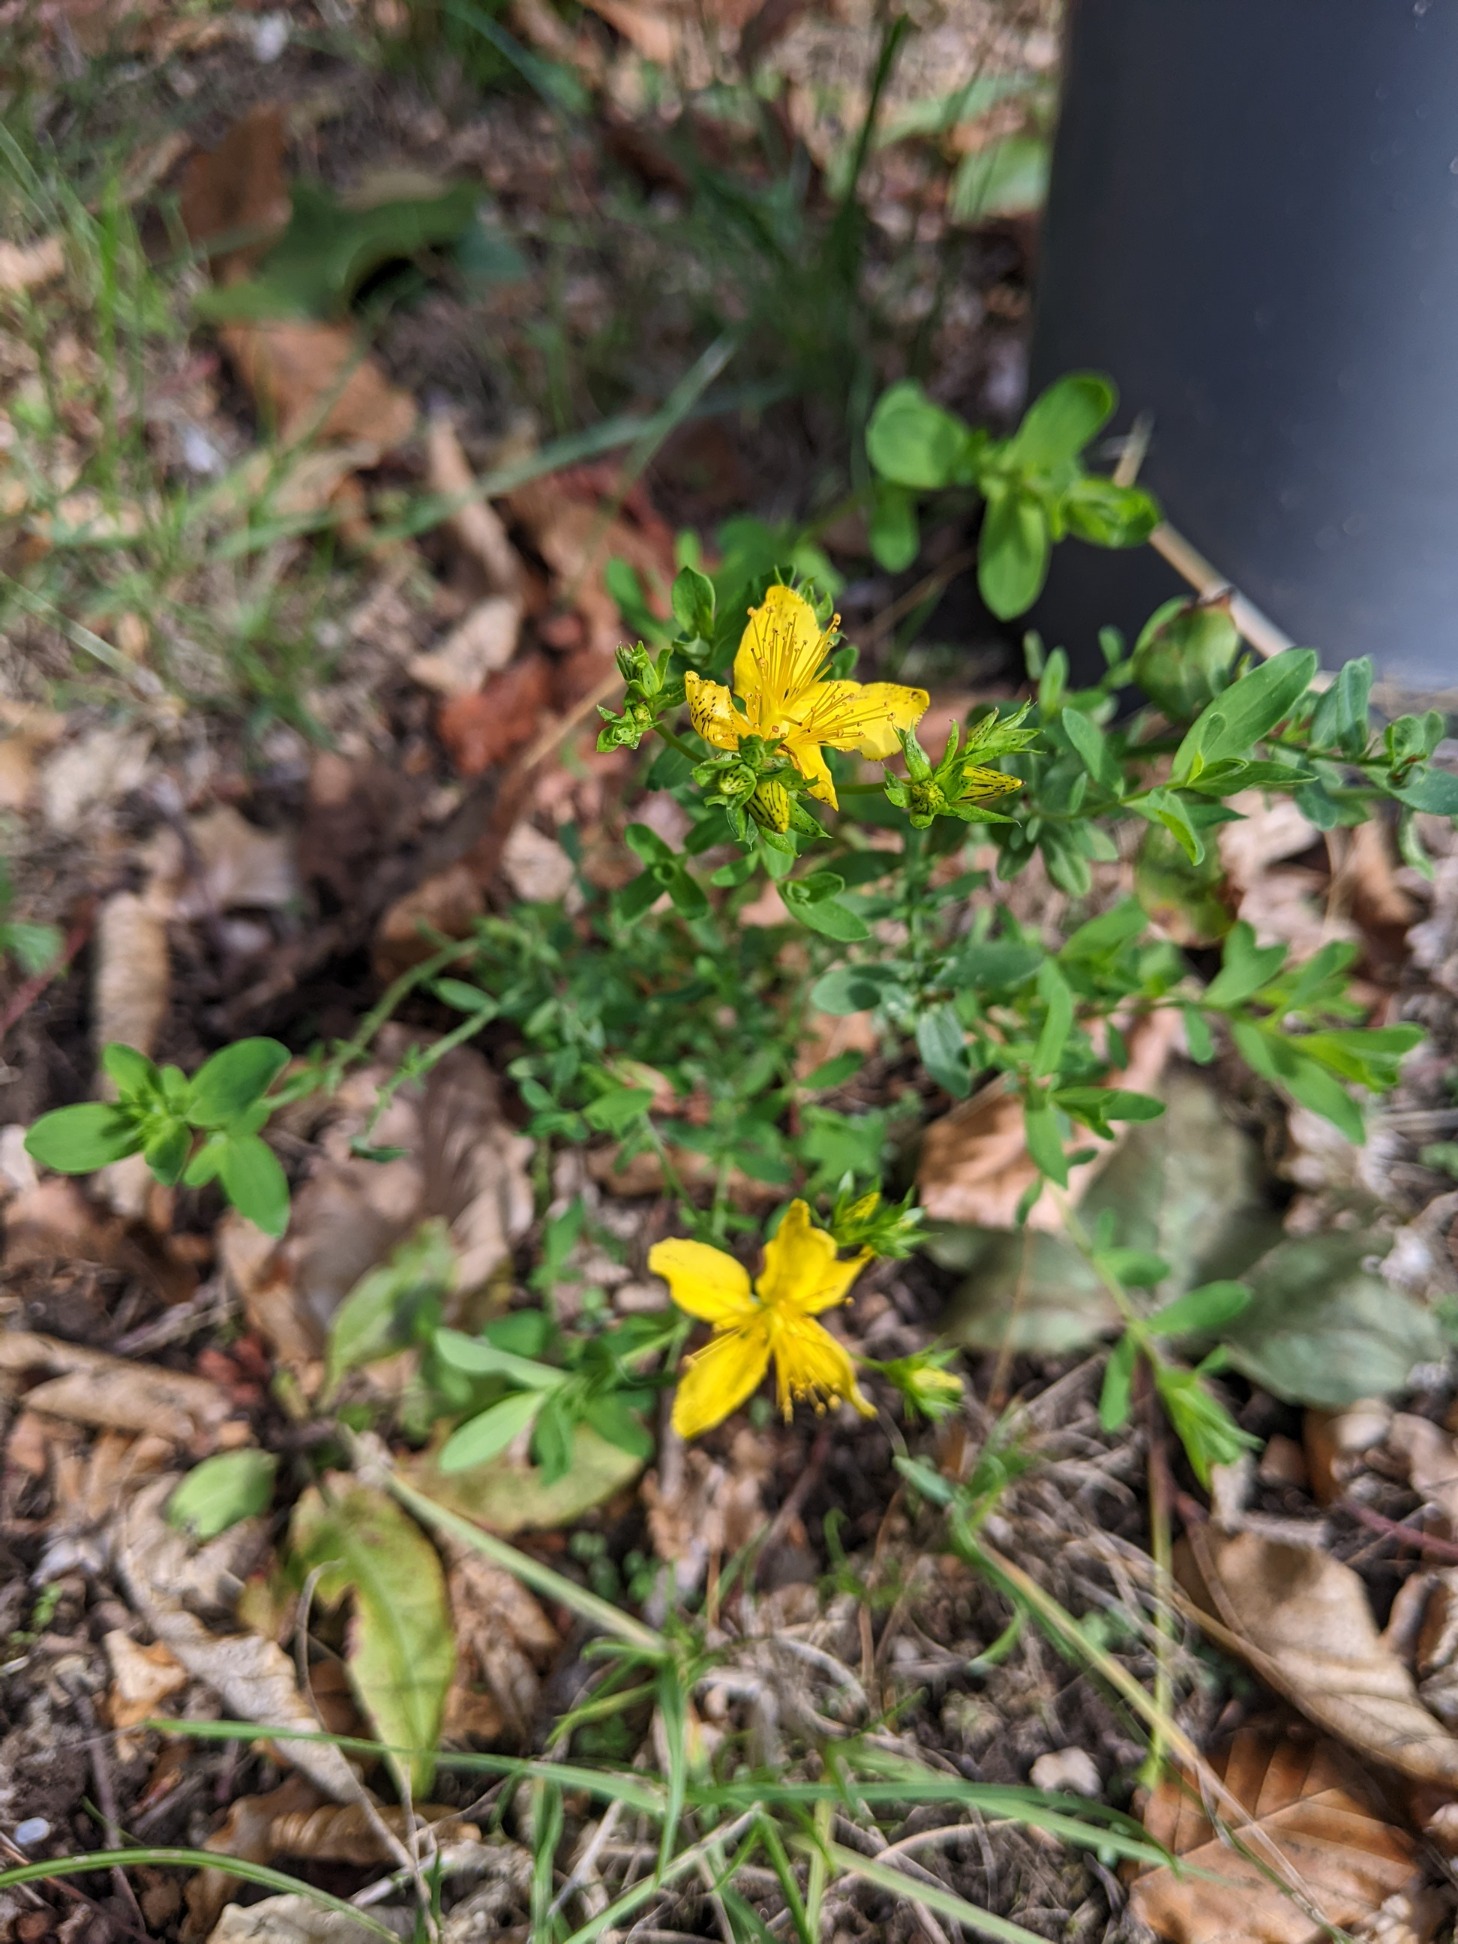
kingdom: Plantae
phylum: Tracheophyta
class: Magnoliopsida
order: Malpighiales
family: Hypericaceae
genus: Hypericum
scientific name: Hypericum perforatum
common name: Prikbladet perikon
